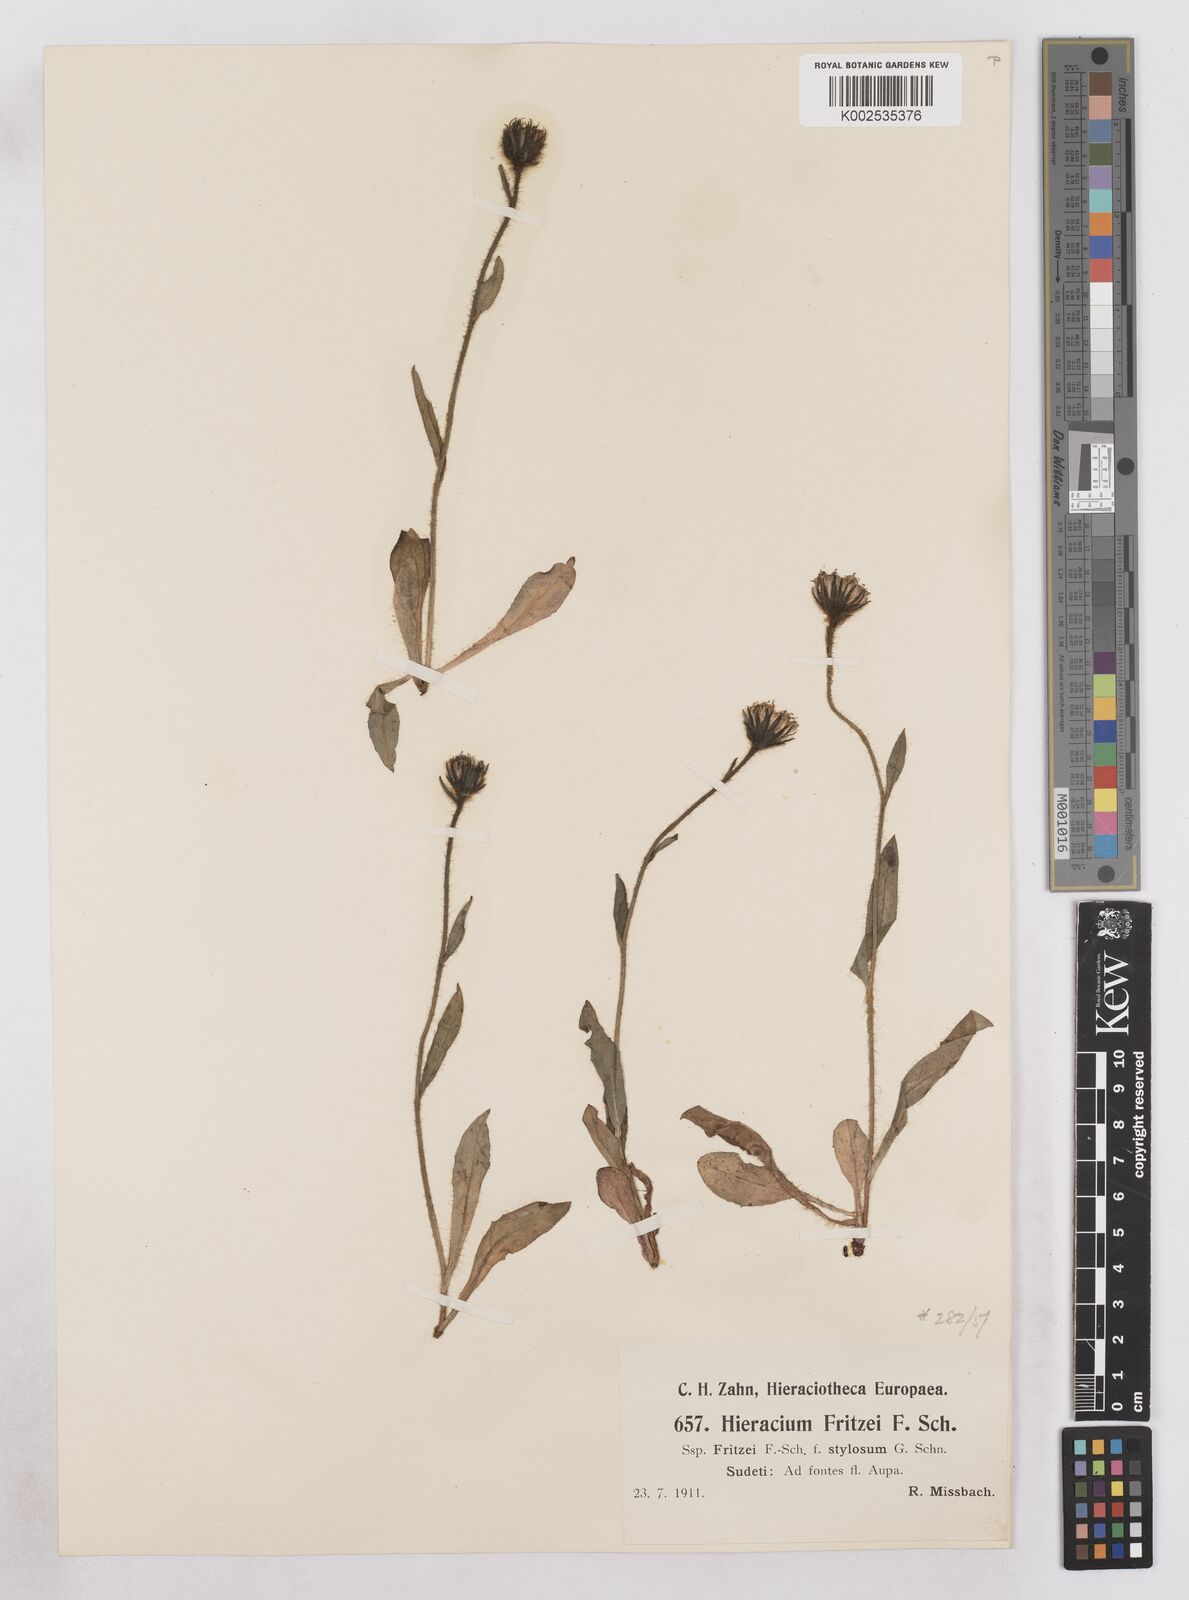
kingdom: Plantae
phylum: Tracheophyta
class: Magnoliopsida
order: Asterales
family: Asteraceae
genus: Hieracium
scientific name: Hieracium fritzei
